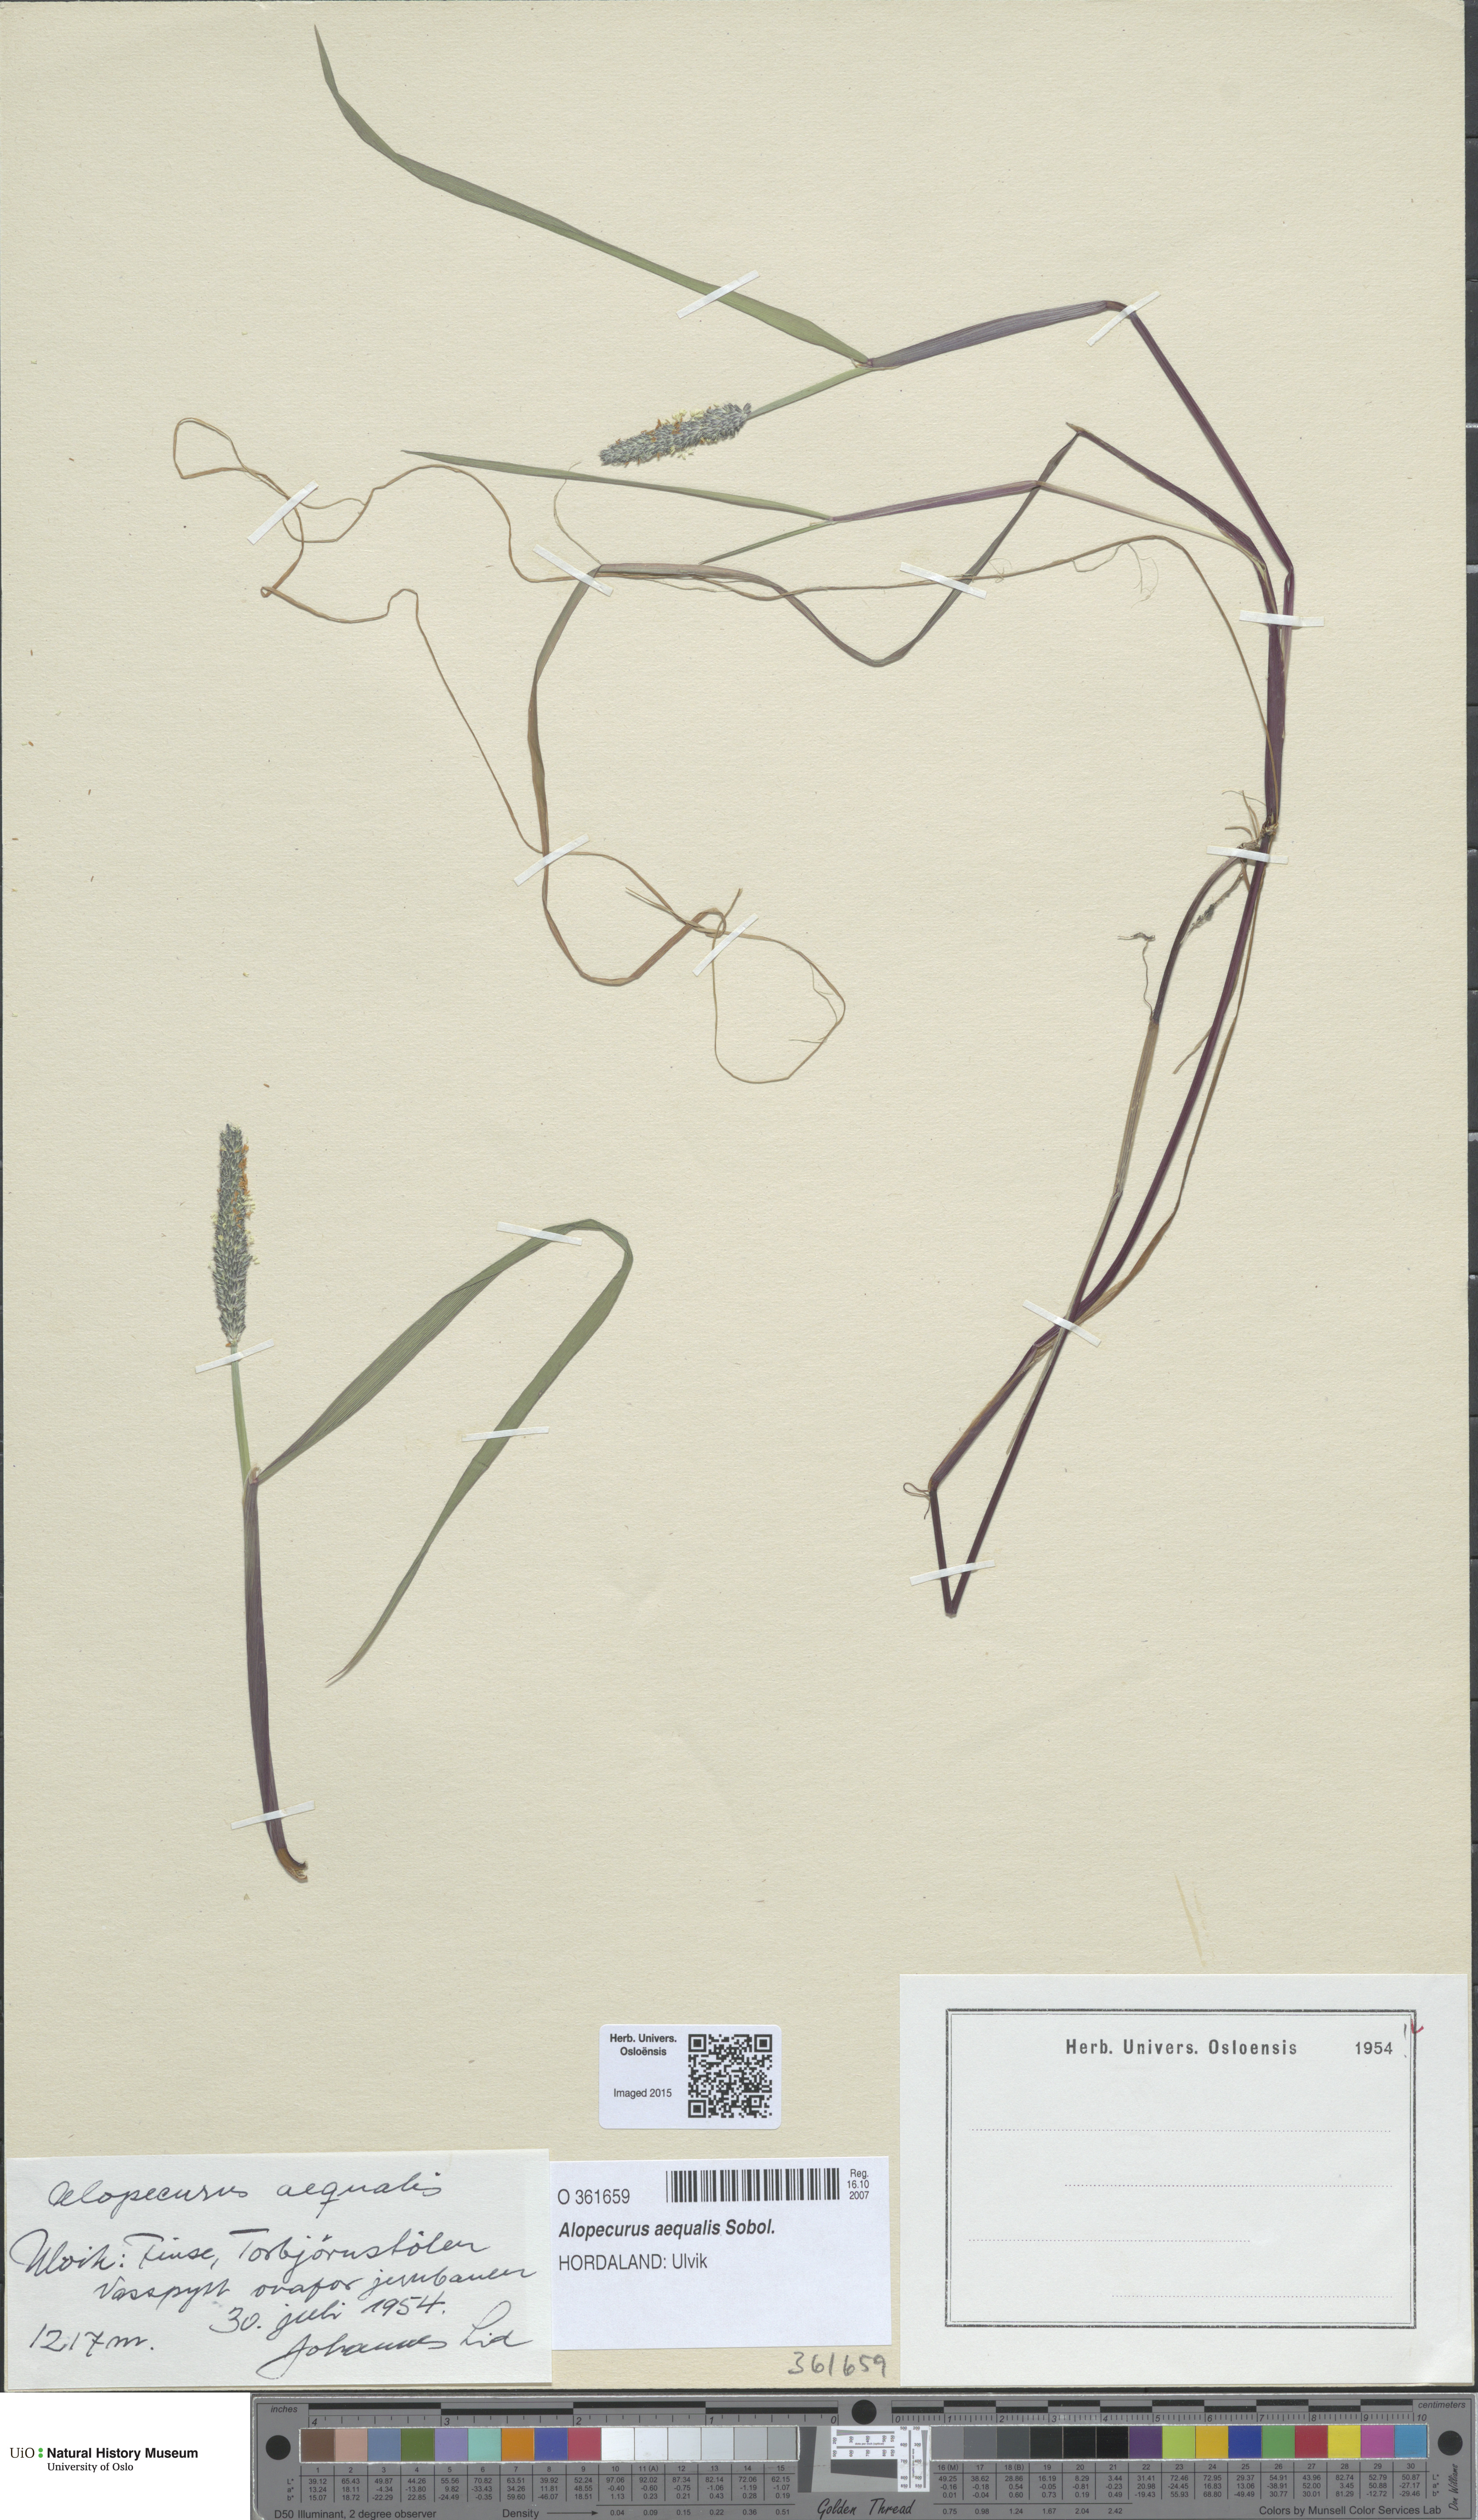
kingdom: Plantae
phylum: Tracheophyta
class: Liliopsida
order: Poales
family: Poaceae
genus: Alopecurus
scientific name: Alopecurus aequalis
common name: Orange foxtail
